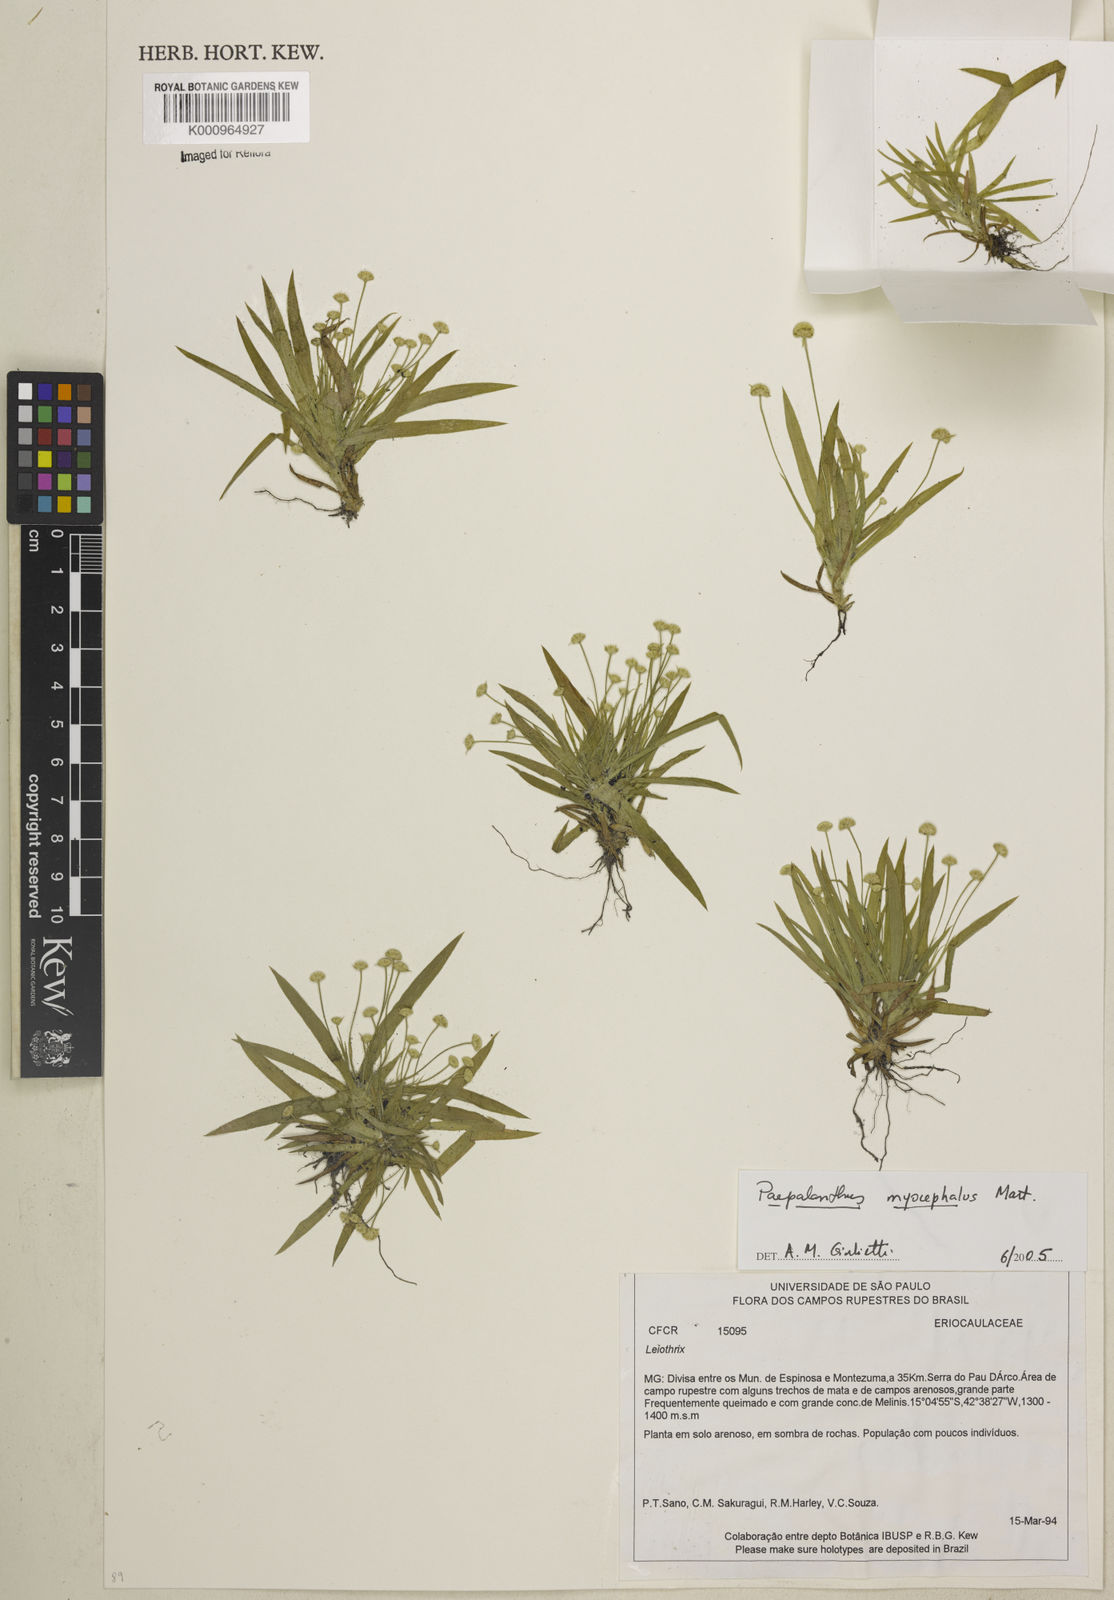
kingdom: Plantae
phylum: Tracheophyta
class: Liliopsida
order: Poales
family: Eriocaulaceae
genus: Paepalanthus
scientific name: Paepalanthus
